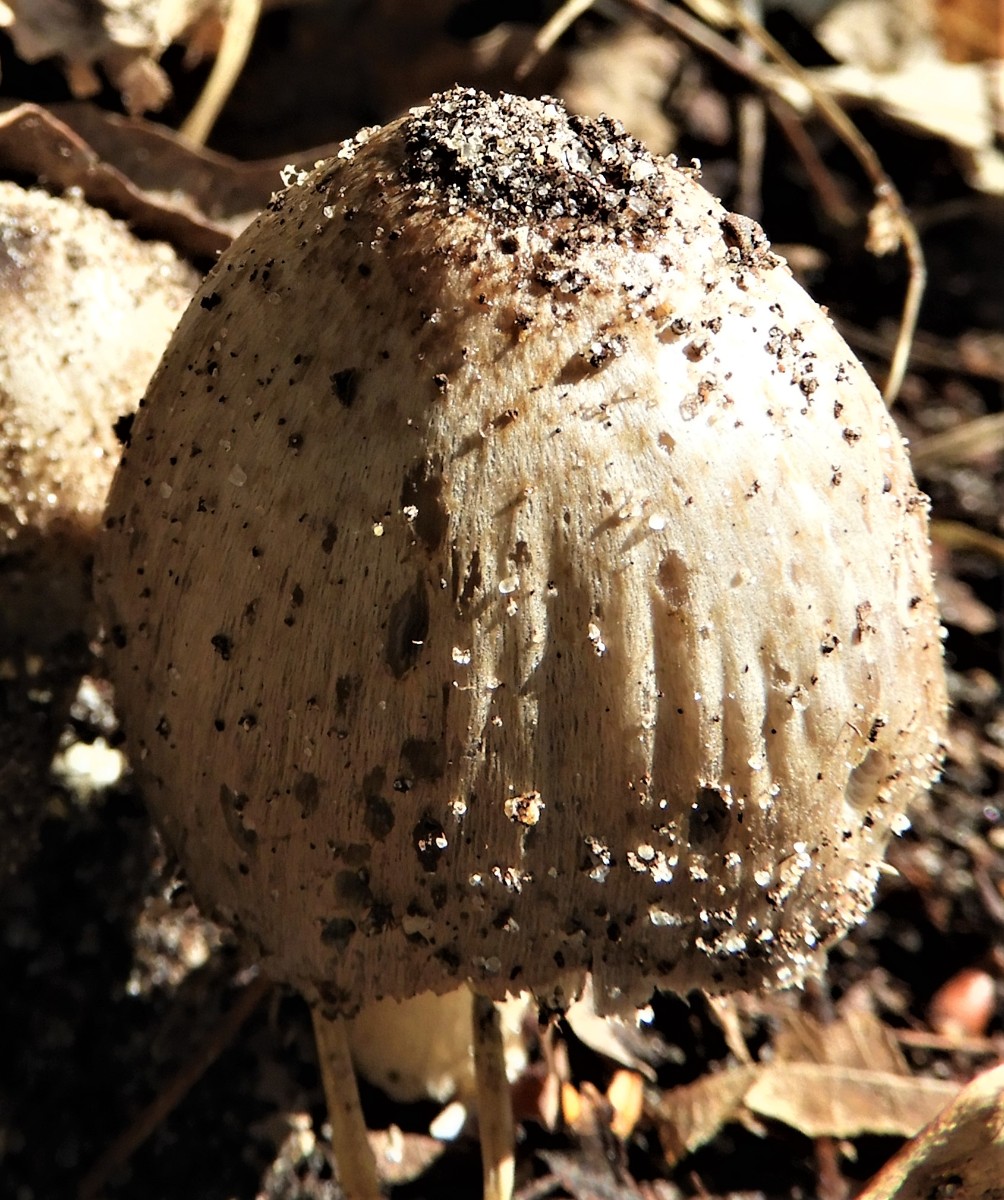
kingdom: Fungi
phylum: Basidiomycota
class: Agaricomycetes
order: Agaricales
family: Psathyrellaceae
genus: Coprinopsis
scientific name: Coprinopsis
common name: blækhat
